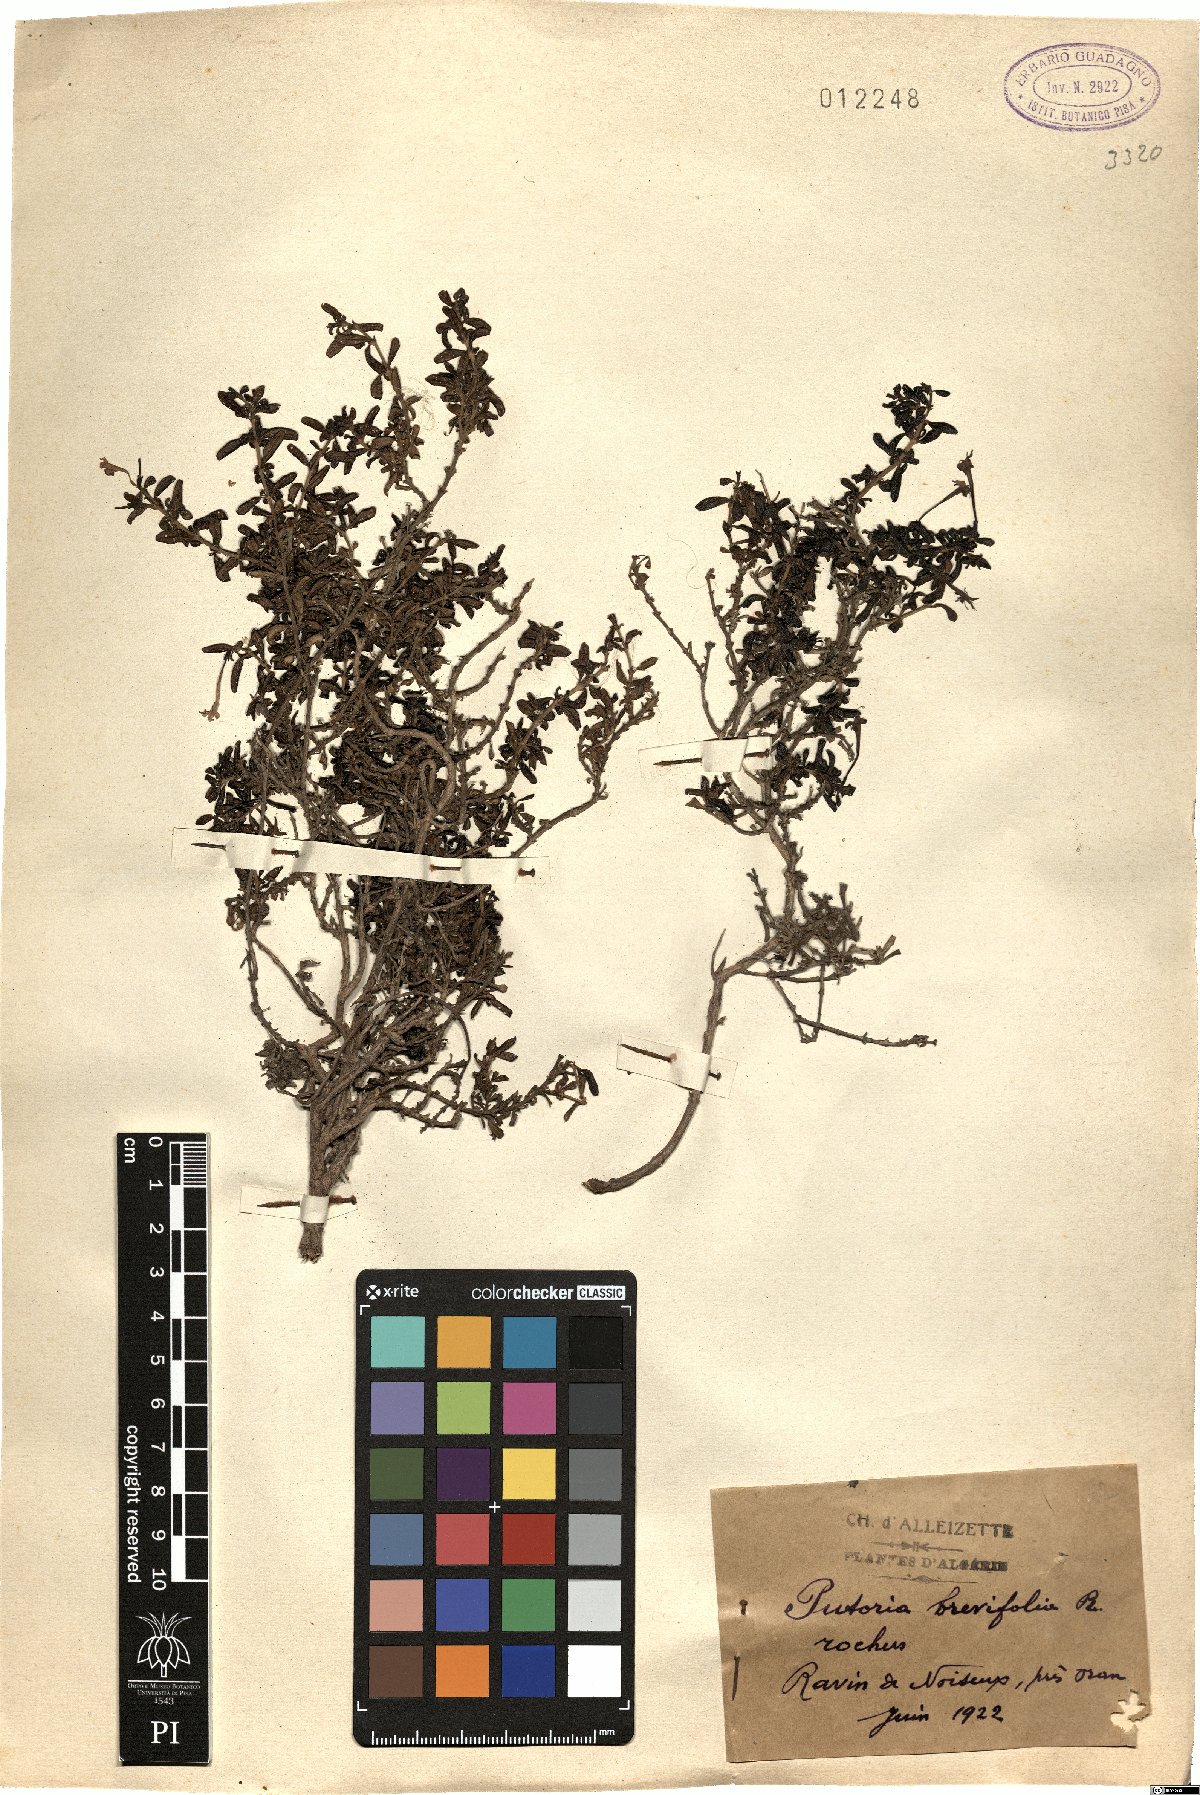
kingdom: Plantae
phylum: Tracheophyta
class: Magnoliopsida
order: Gentianales
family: Rubiaceae
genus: Plocama
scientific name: Plocama brevifolia
